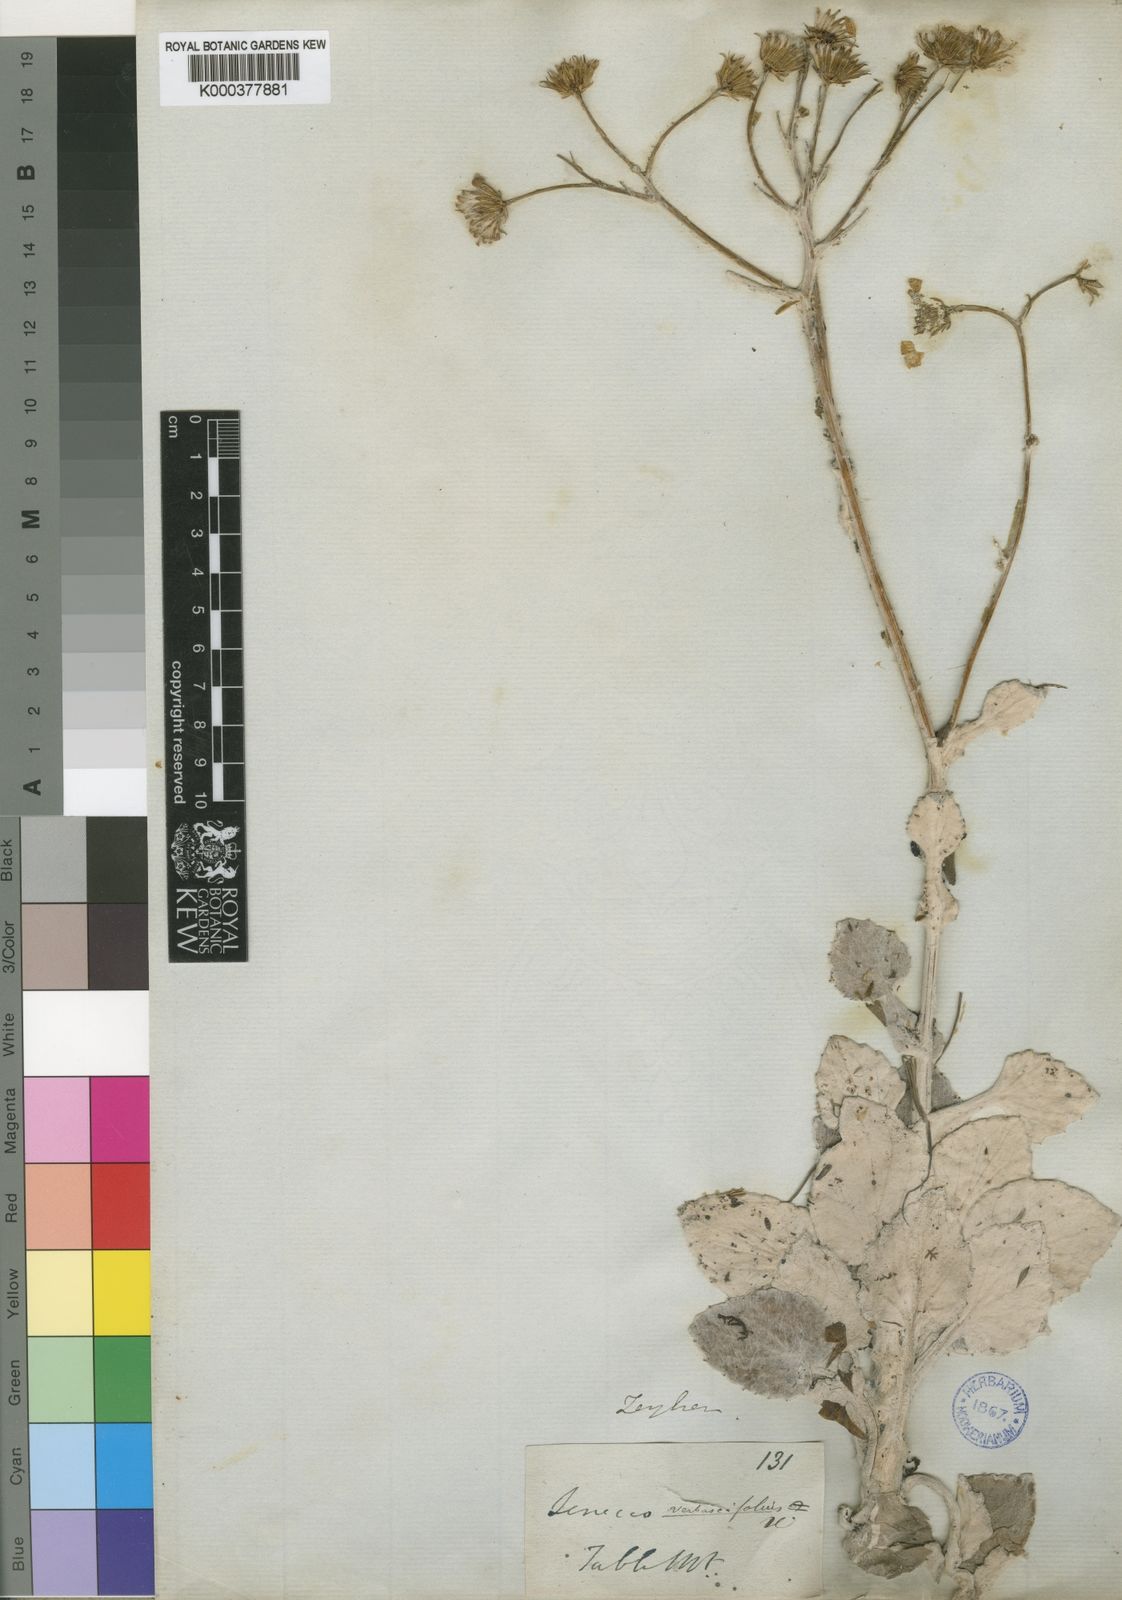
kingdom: Plantae
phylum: Tracheophyta
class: Magnoliopsida
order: Asterales
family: Asteraceae
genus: Senecio
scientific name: Senecio
